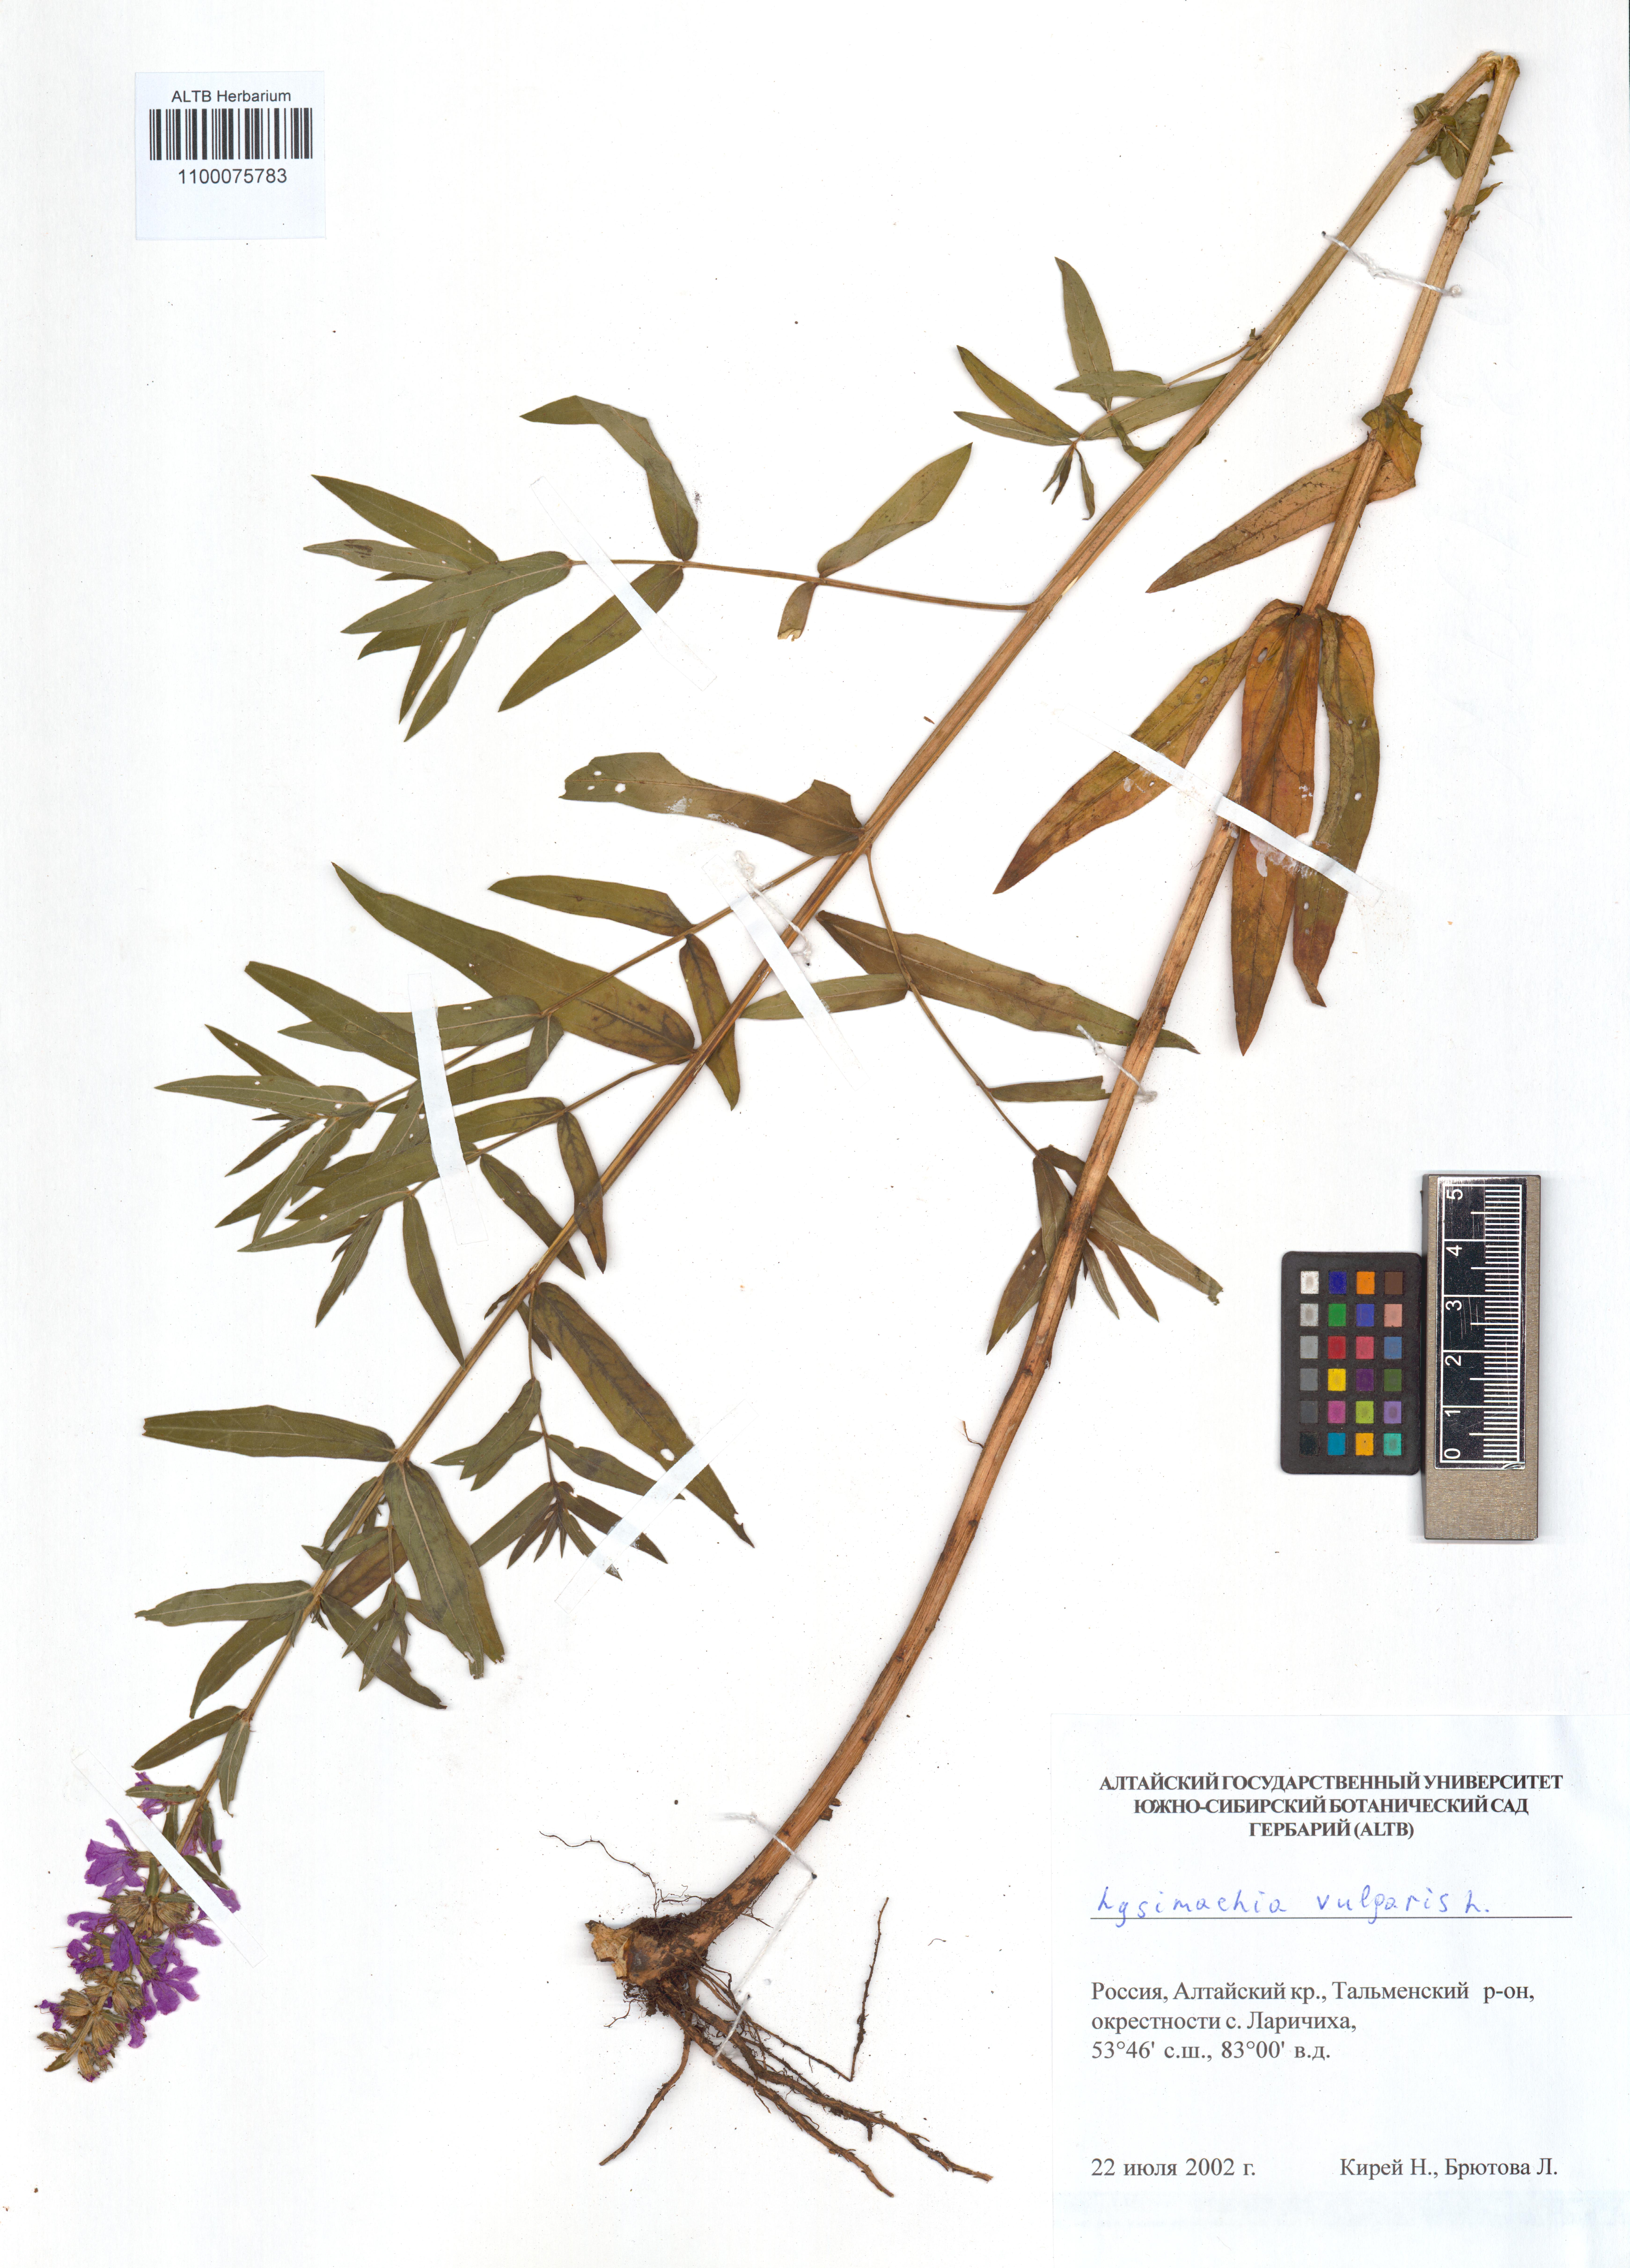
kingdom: Plantae
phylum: Tracheophyta
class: Magnoliopsida
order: Ericales
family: Primulaceae
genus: Lysimachia
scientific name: Lysimachia vulgaris
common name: Yellow loosestrife
